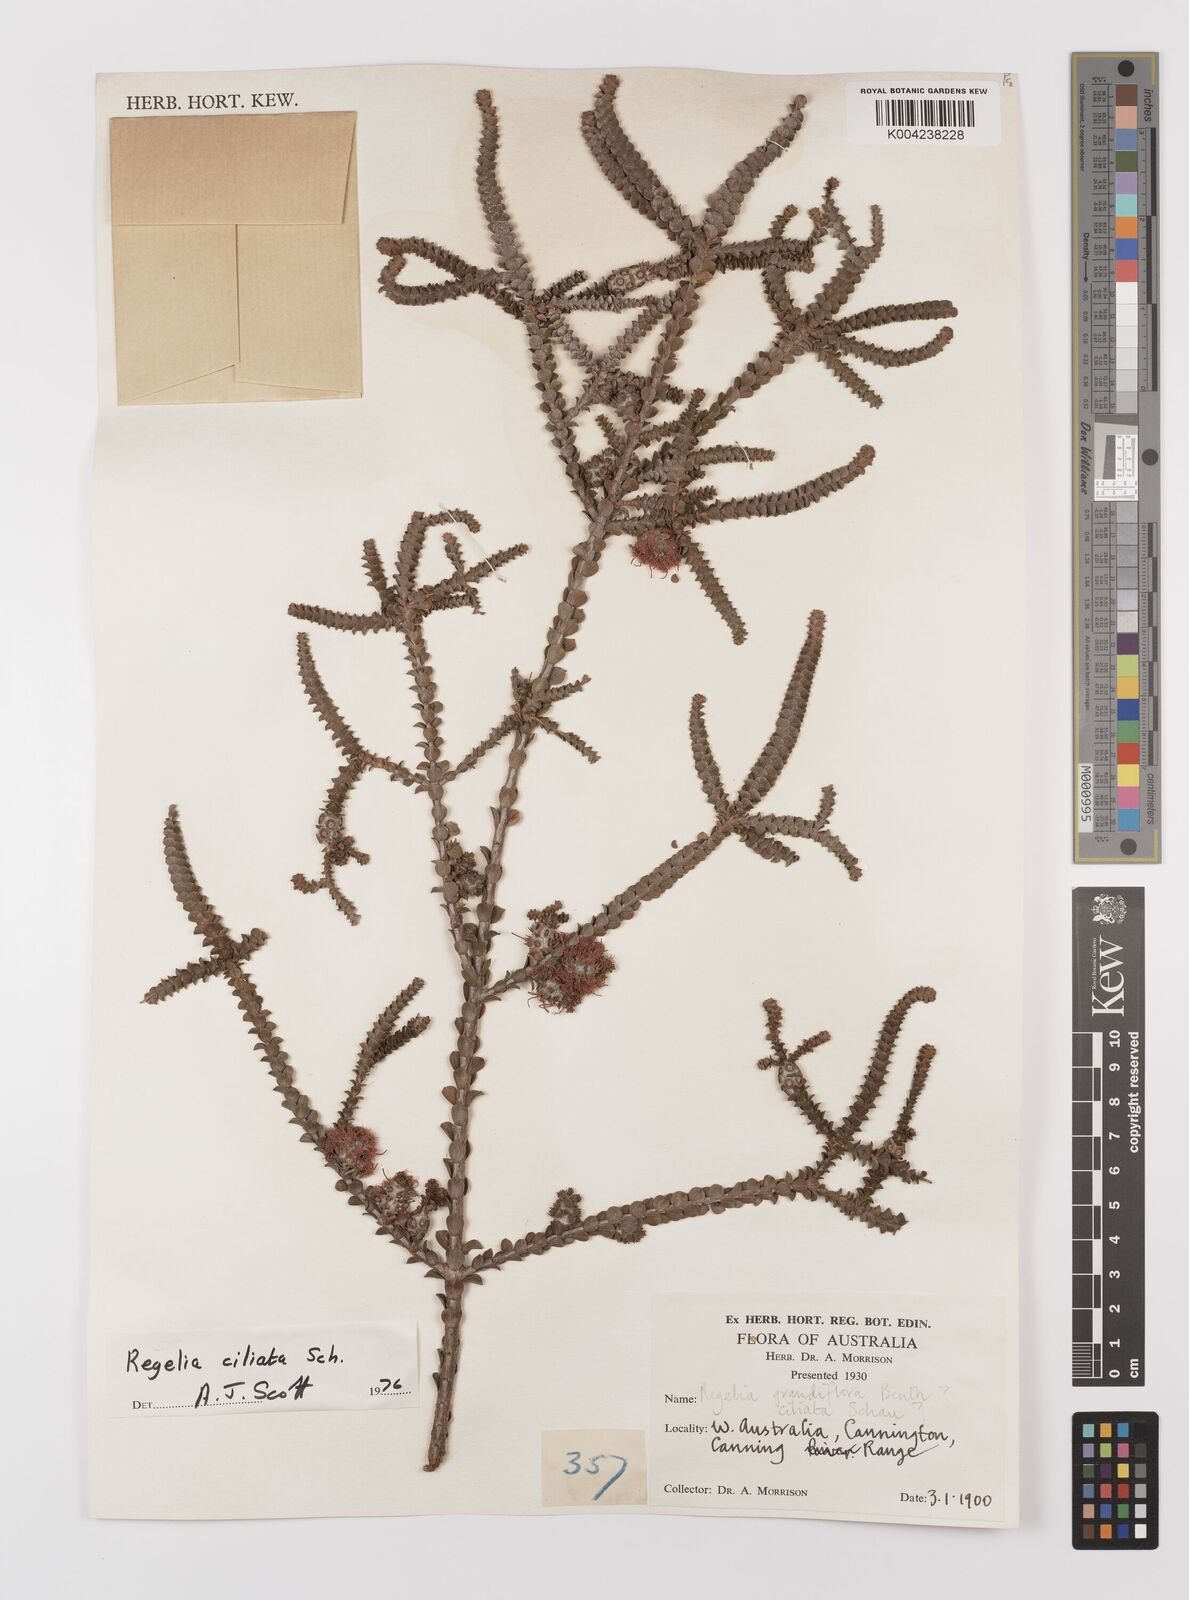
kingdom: Plantae
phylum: Tracheophyta
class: Magnoliopsida
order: Myrtales
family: Myrtaceae
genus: Melaleuca
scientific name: Melaleuca crossota
